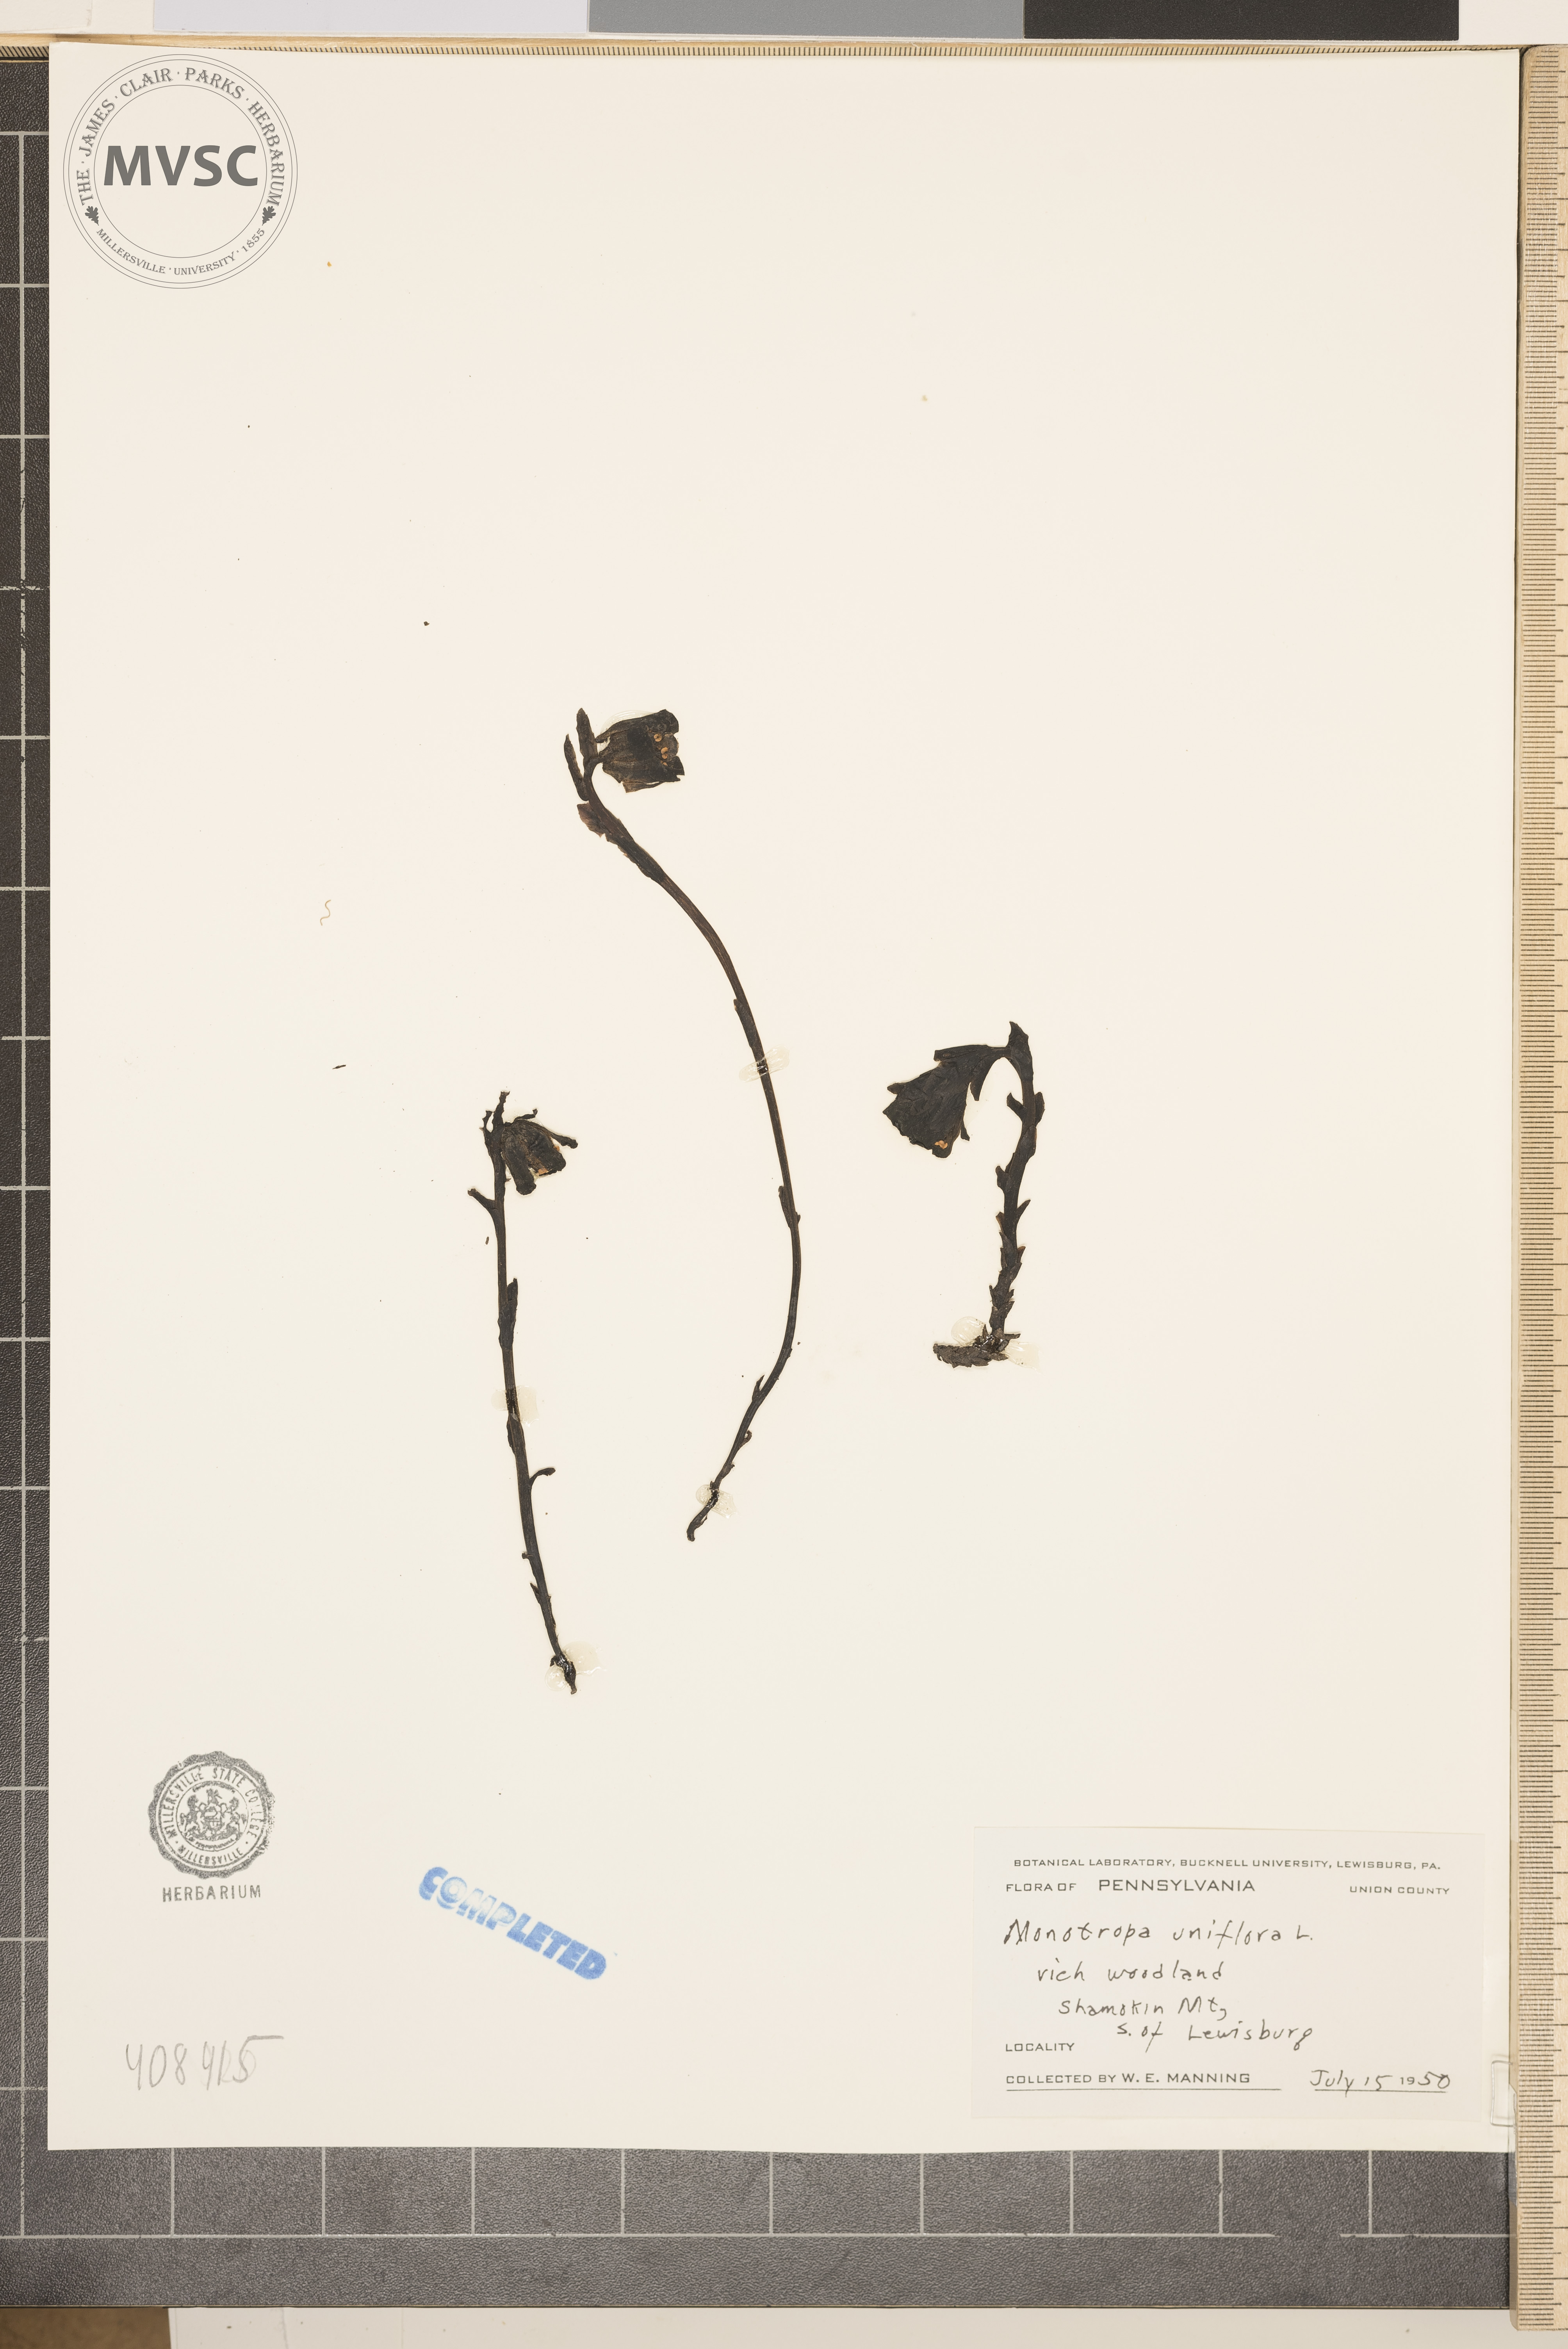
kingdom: Plantae
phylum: Tracheophyta
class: Magnoliopsida
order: Ericales
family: Ericaceae
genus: Monotropa
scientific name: Monotropa uniflora
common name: Convulsion root
